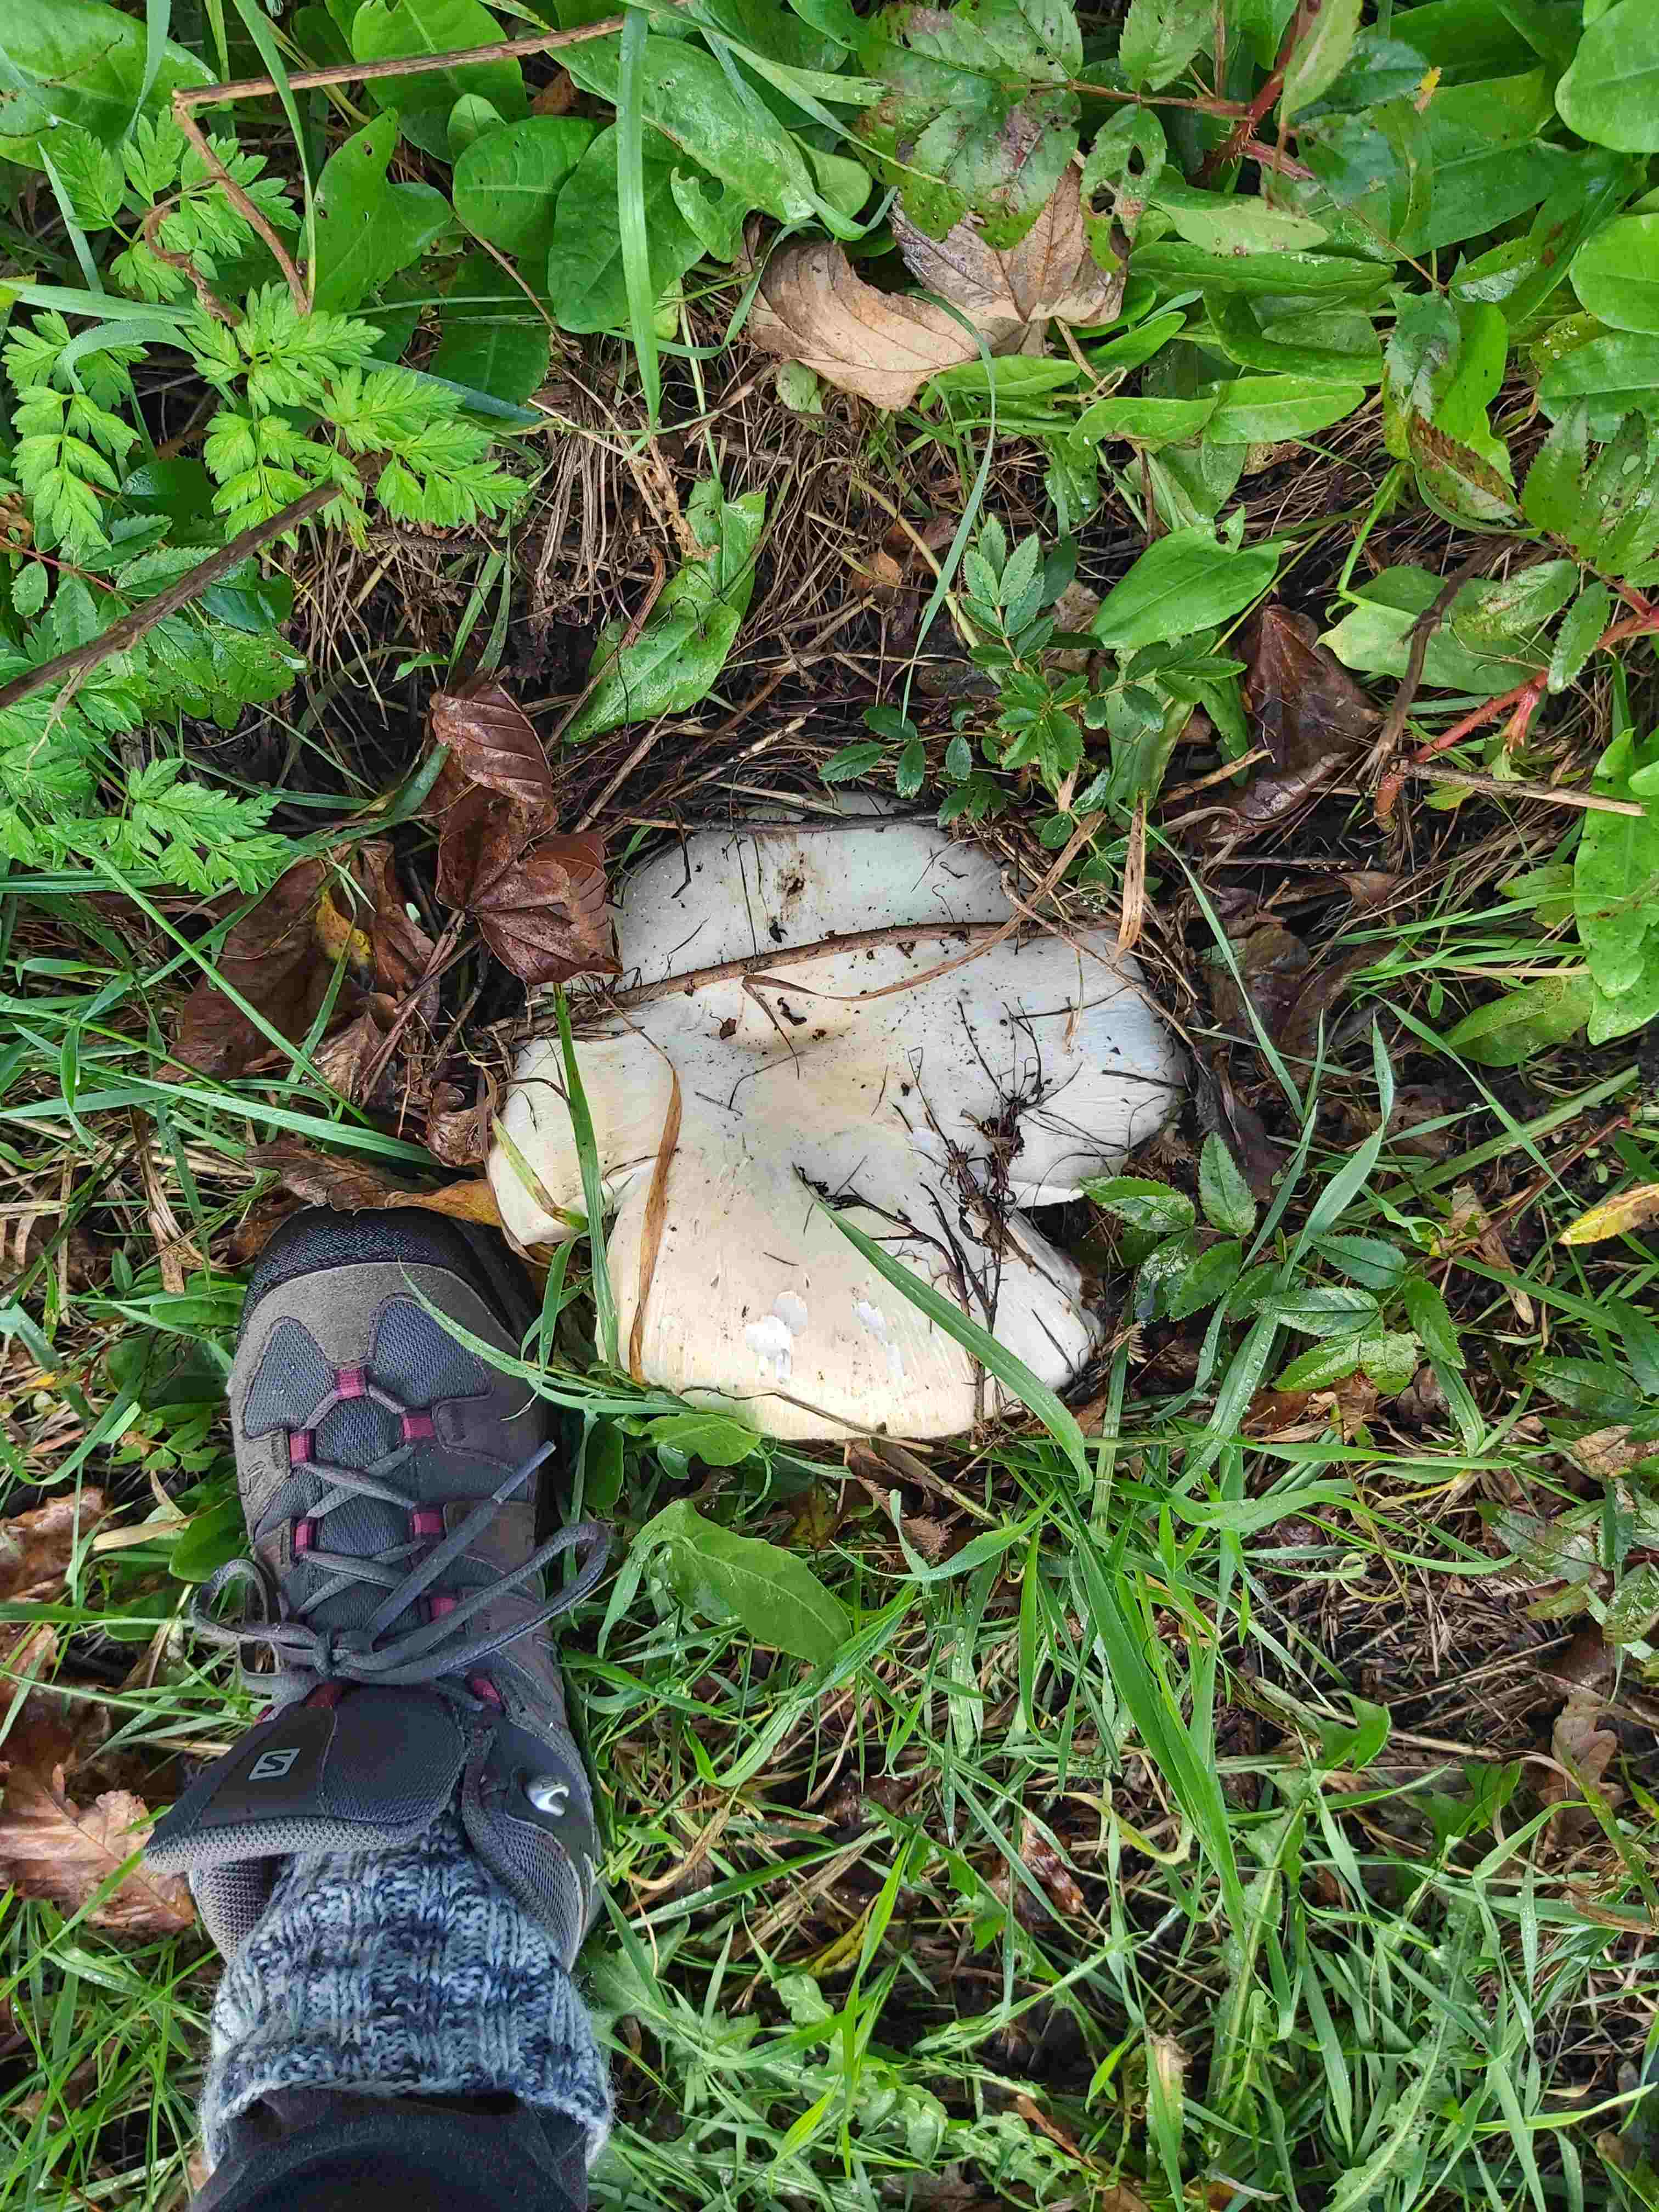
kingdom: Fungi
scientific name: Fungi
